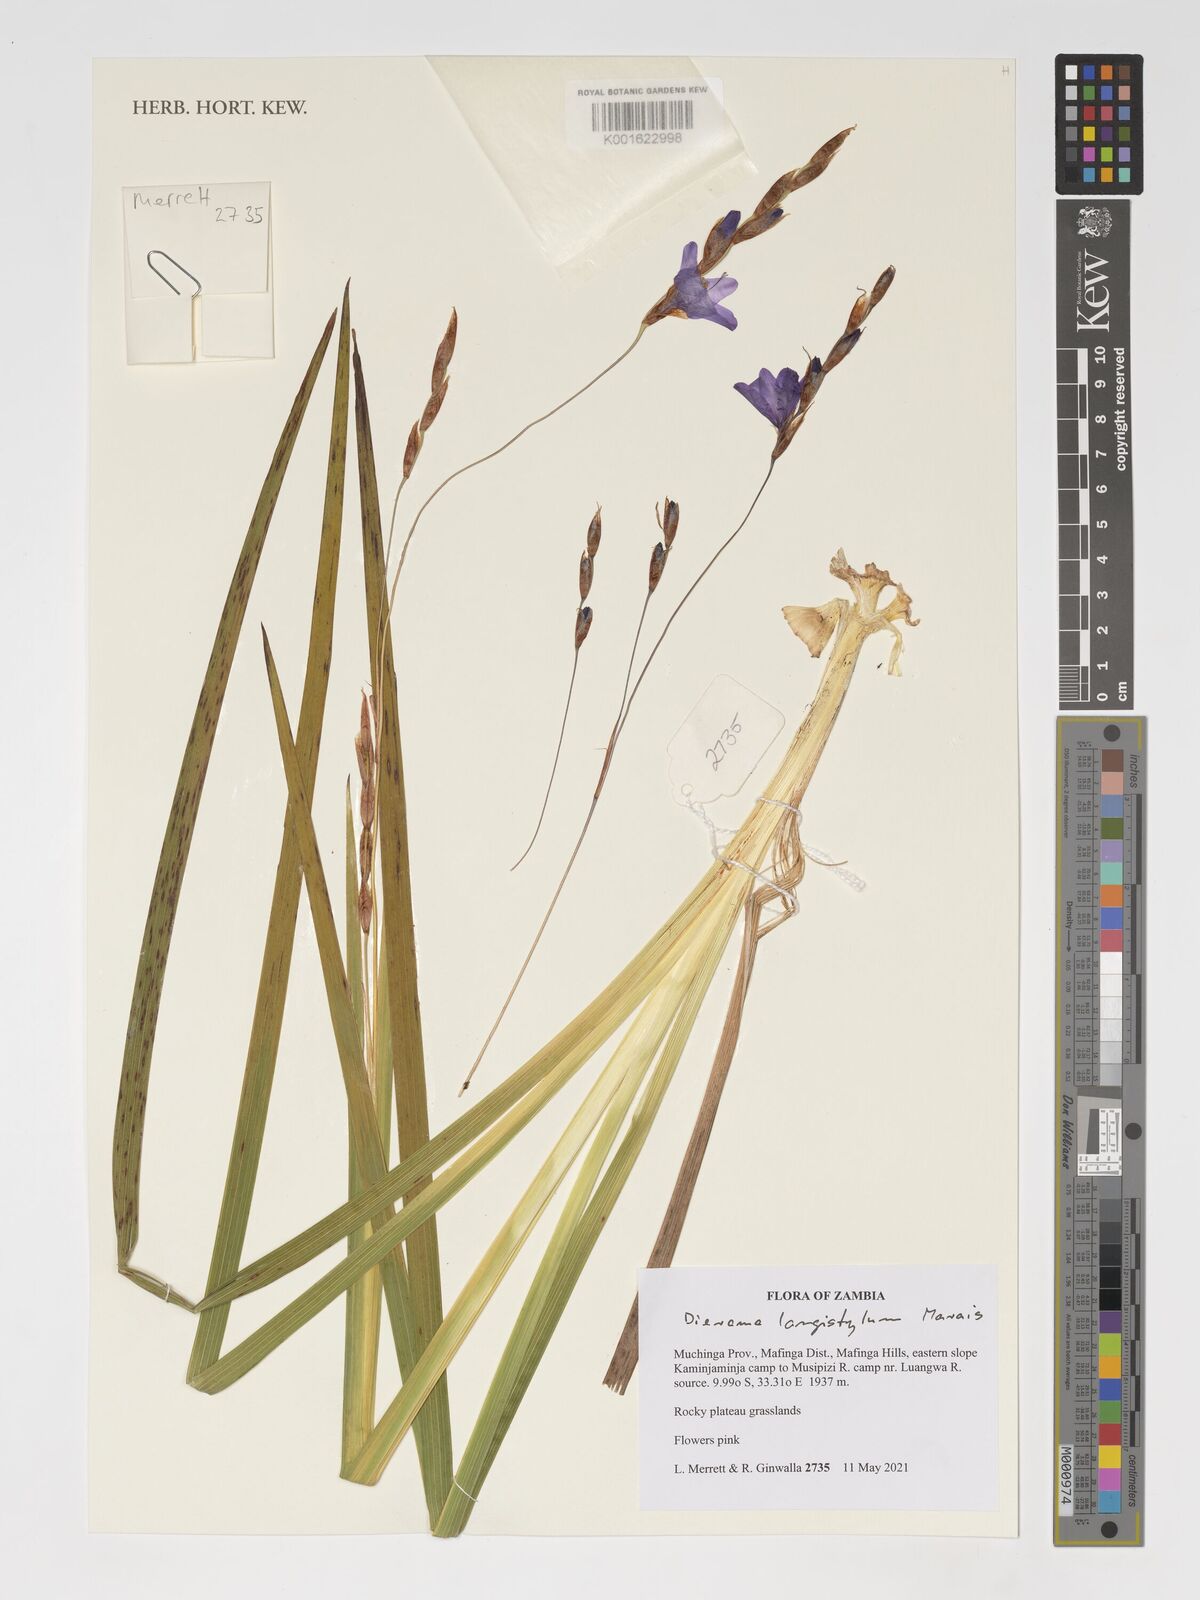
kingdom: Plantae
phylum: Tracheophyta
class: Liliopsida
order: Asparagales
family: Iridaceae
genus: Dierama
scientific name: Dierama longistylum
